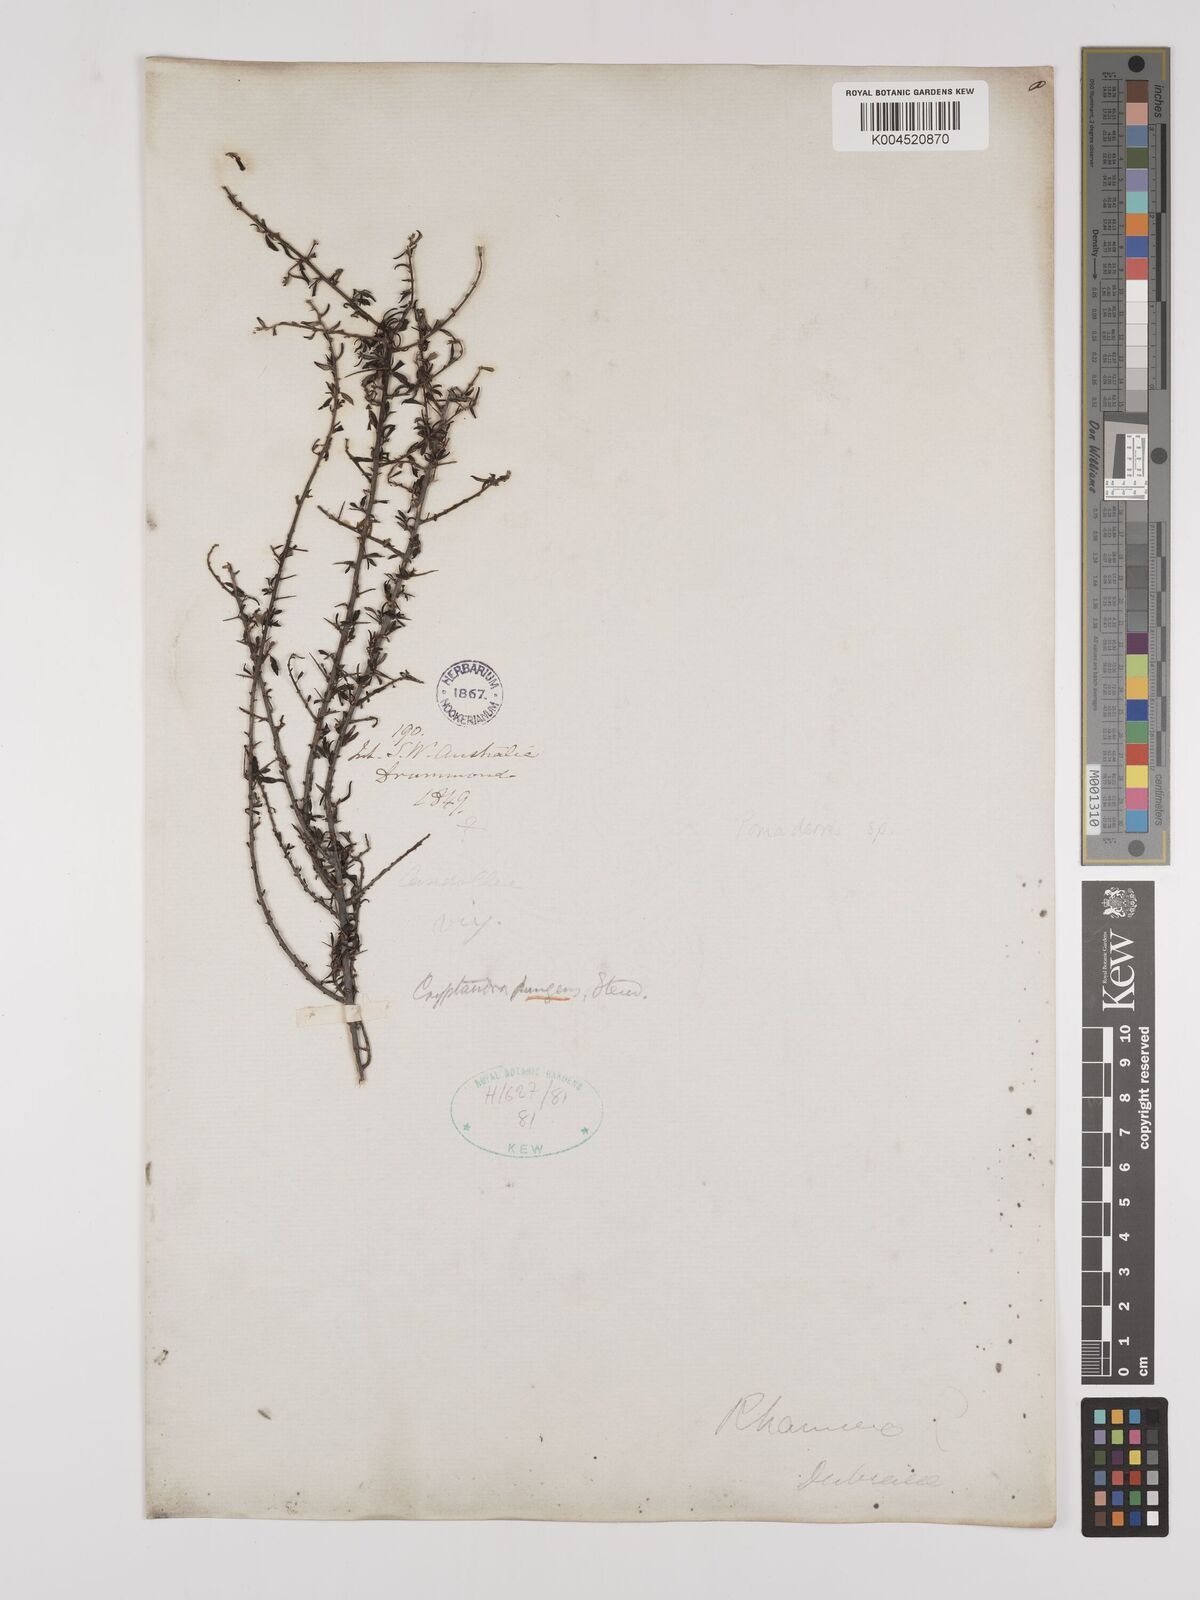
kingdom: Plantae
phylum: Tracheophyta
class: Magnoliopsida
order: Rosales
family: Rhamnaceae
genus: Pomaderris
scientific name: Pomaderris
